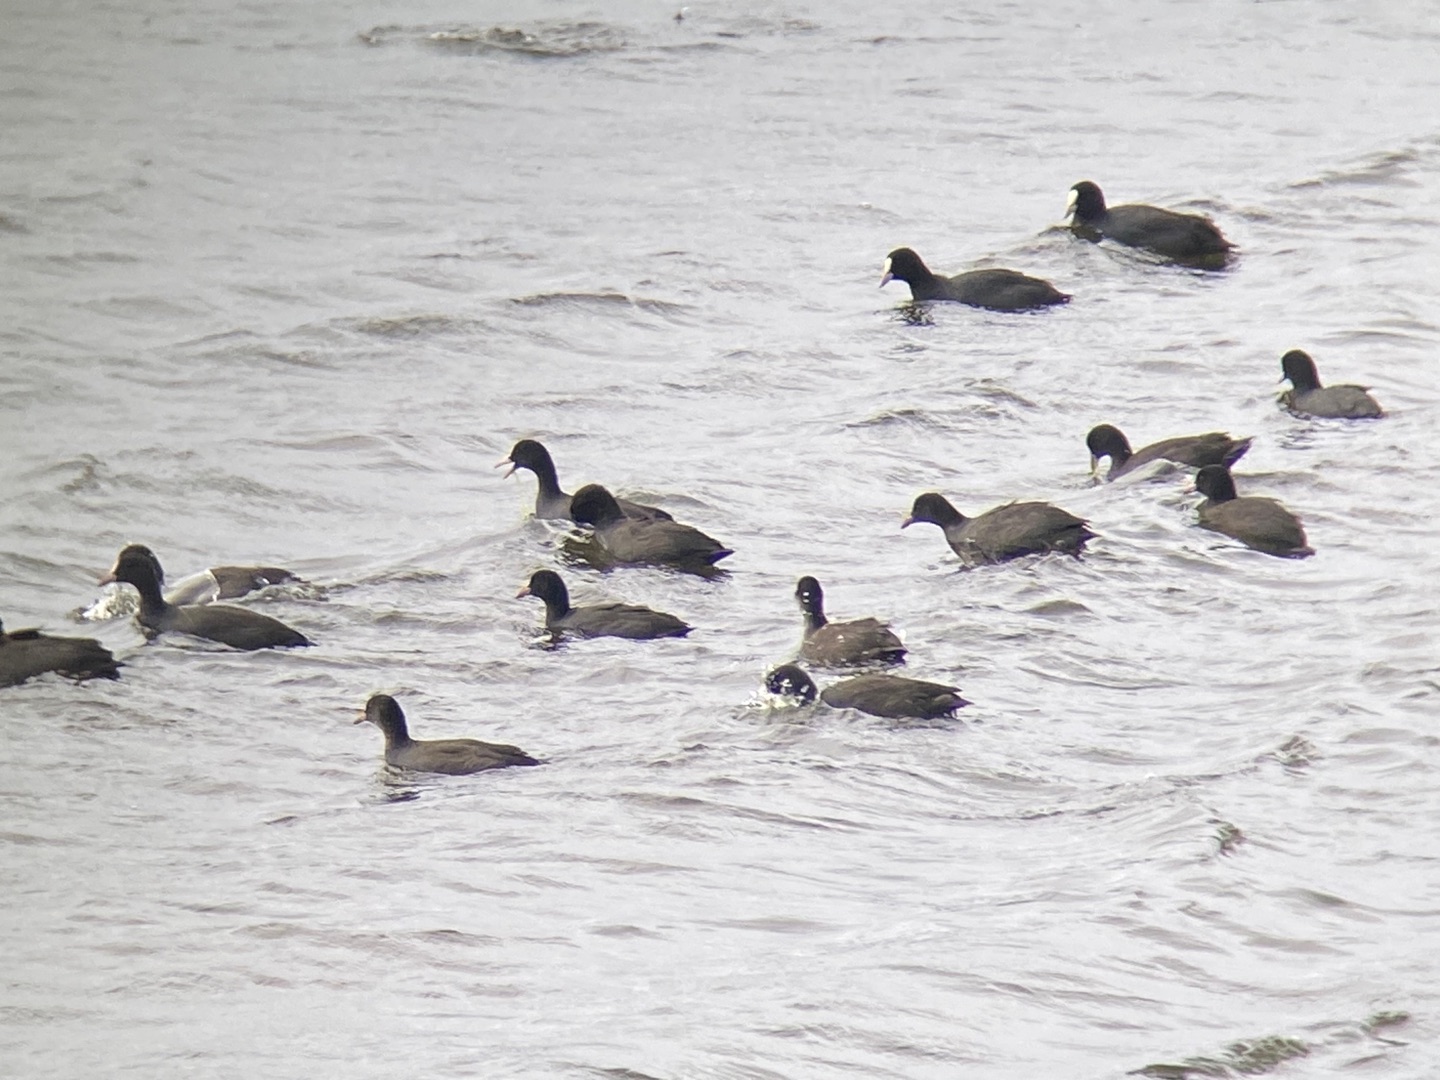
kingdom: Animalia
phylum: Chordata
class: Aves
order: Gruiformes
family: Rallidae
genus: Fulica
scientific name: Fulica atra
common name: Blishøne
